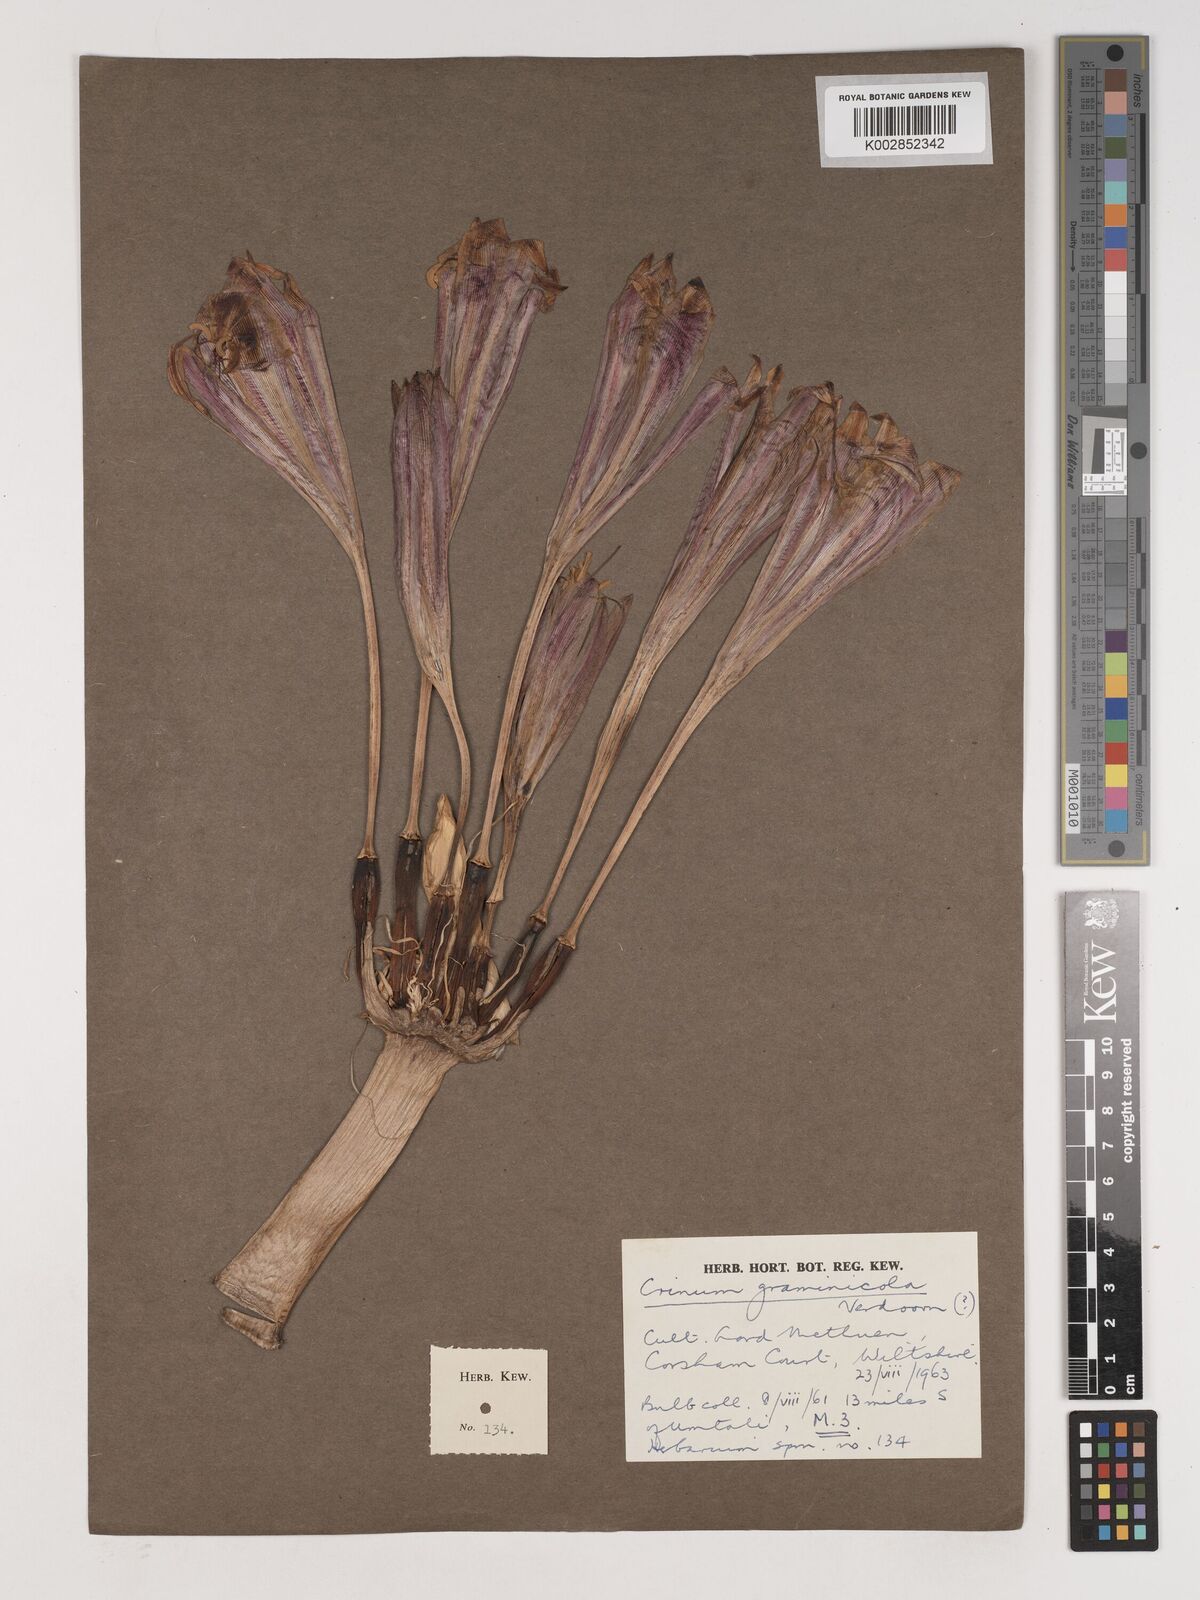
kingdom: Plantae
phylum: Tracheophyta
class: Liliopsida
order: Asparagales
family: Amaryllidaceae
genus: Crinum
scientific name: Crinum graminicola
